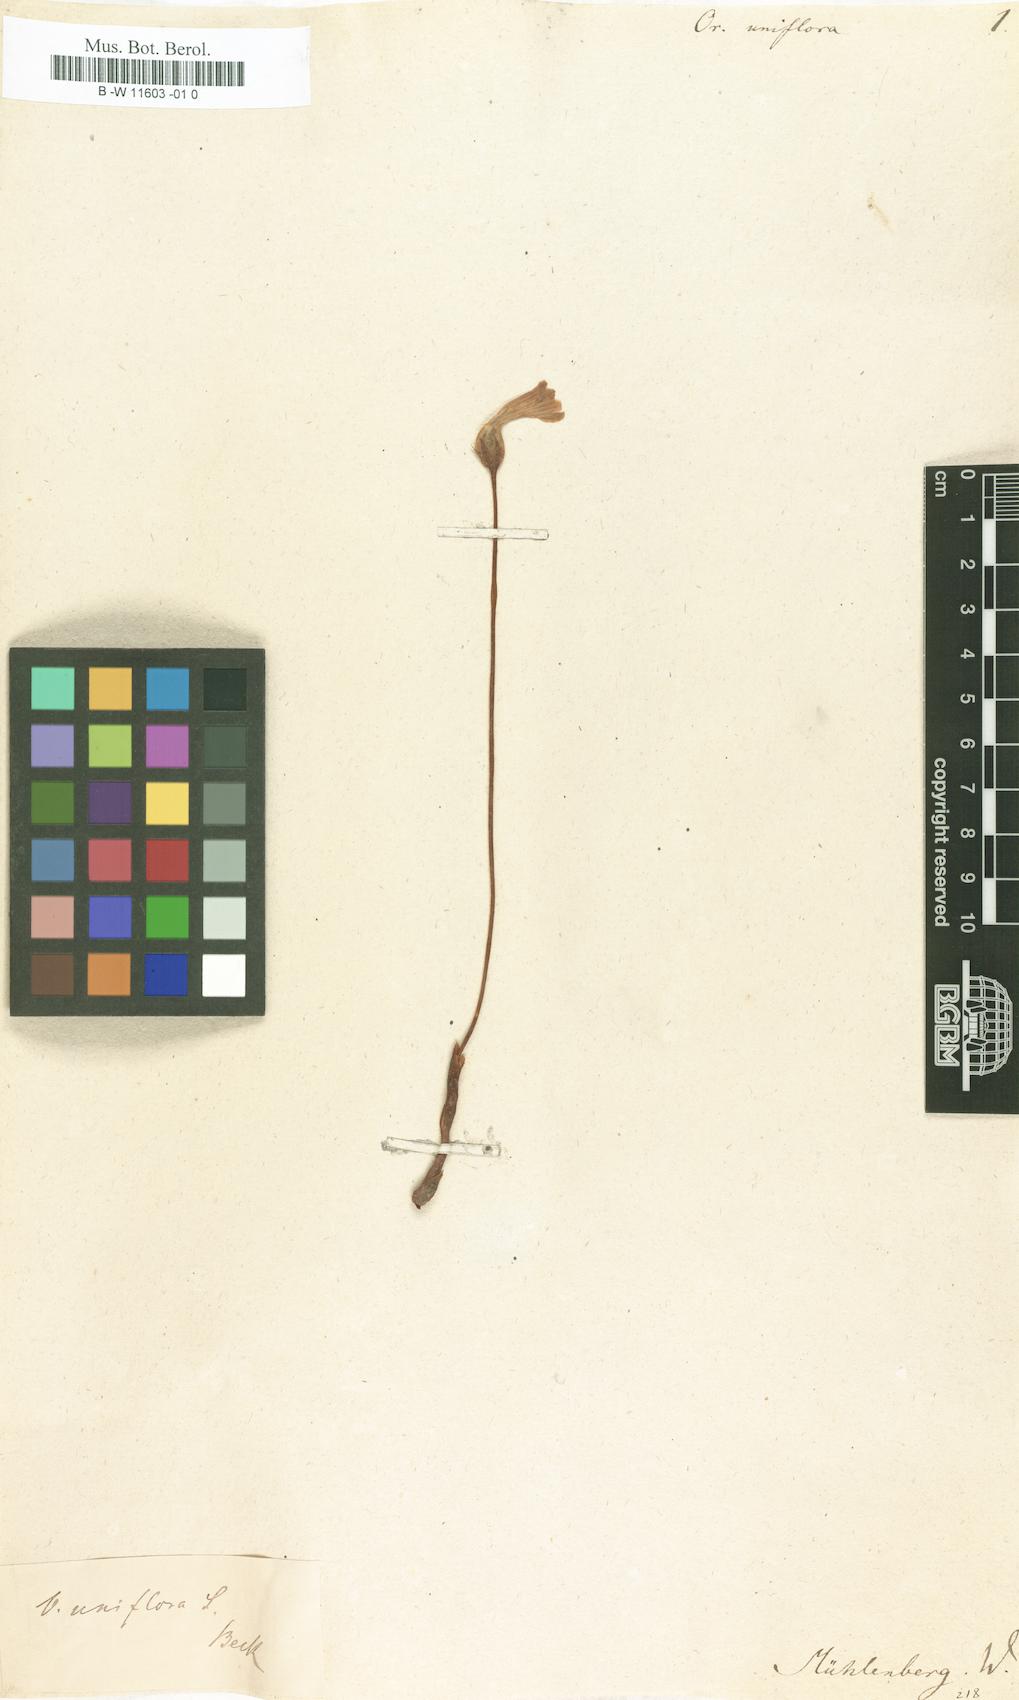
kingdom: Plantae
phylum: Tracheophyta
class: Magnoliopsida
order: Lamiales
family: Orobanchaceae
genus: Aphyllon
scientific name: Aphyllon uniflorum
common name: One-flowered broomrape
